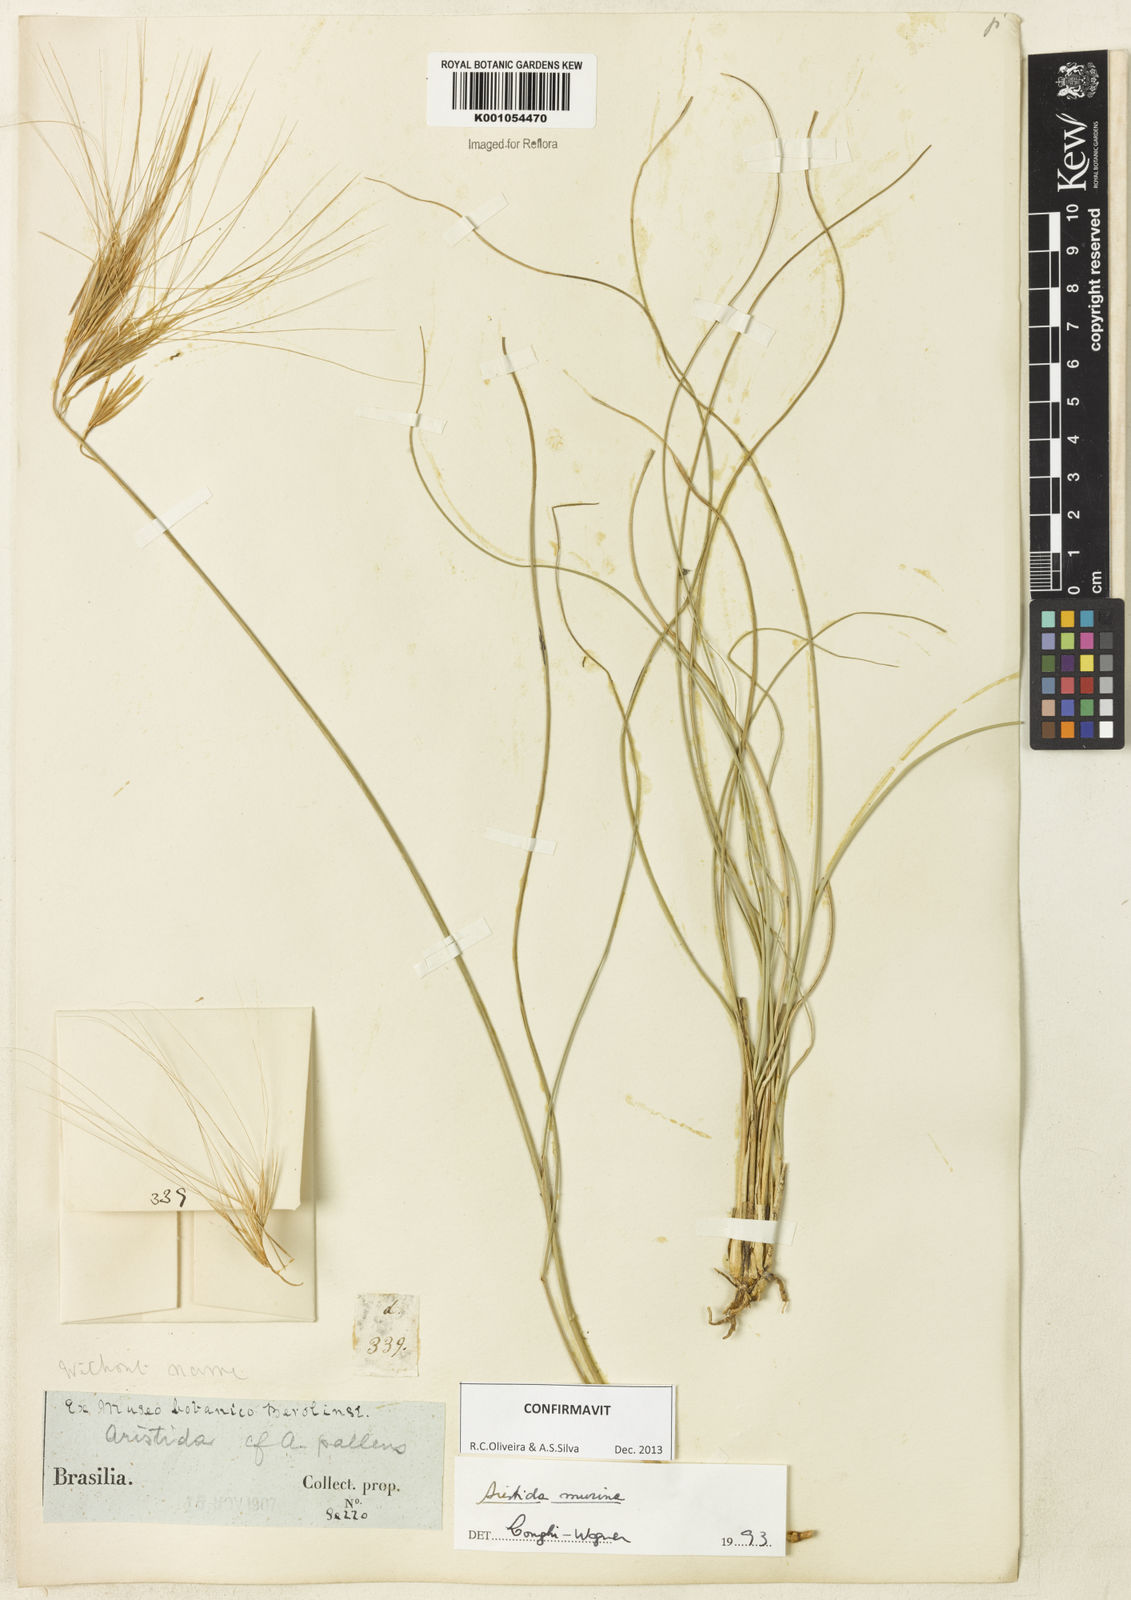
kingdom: Plantae
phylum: Tracheophyta
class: Liliopsida
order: Poales
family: Poaceae
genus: Aristida
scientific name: Aristida murina
